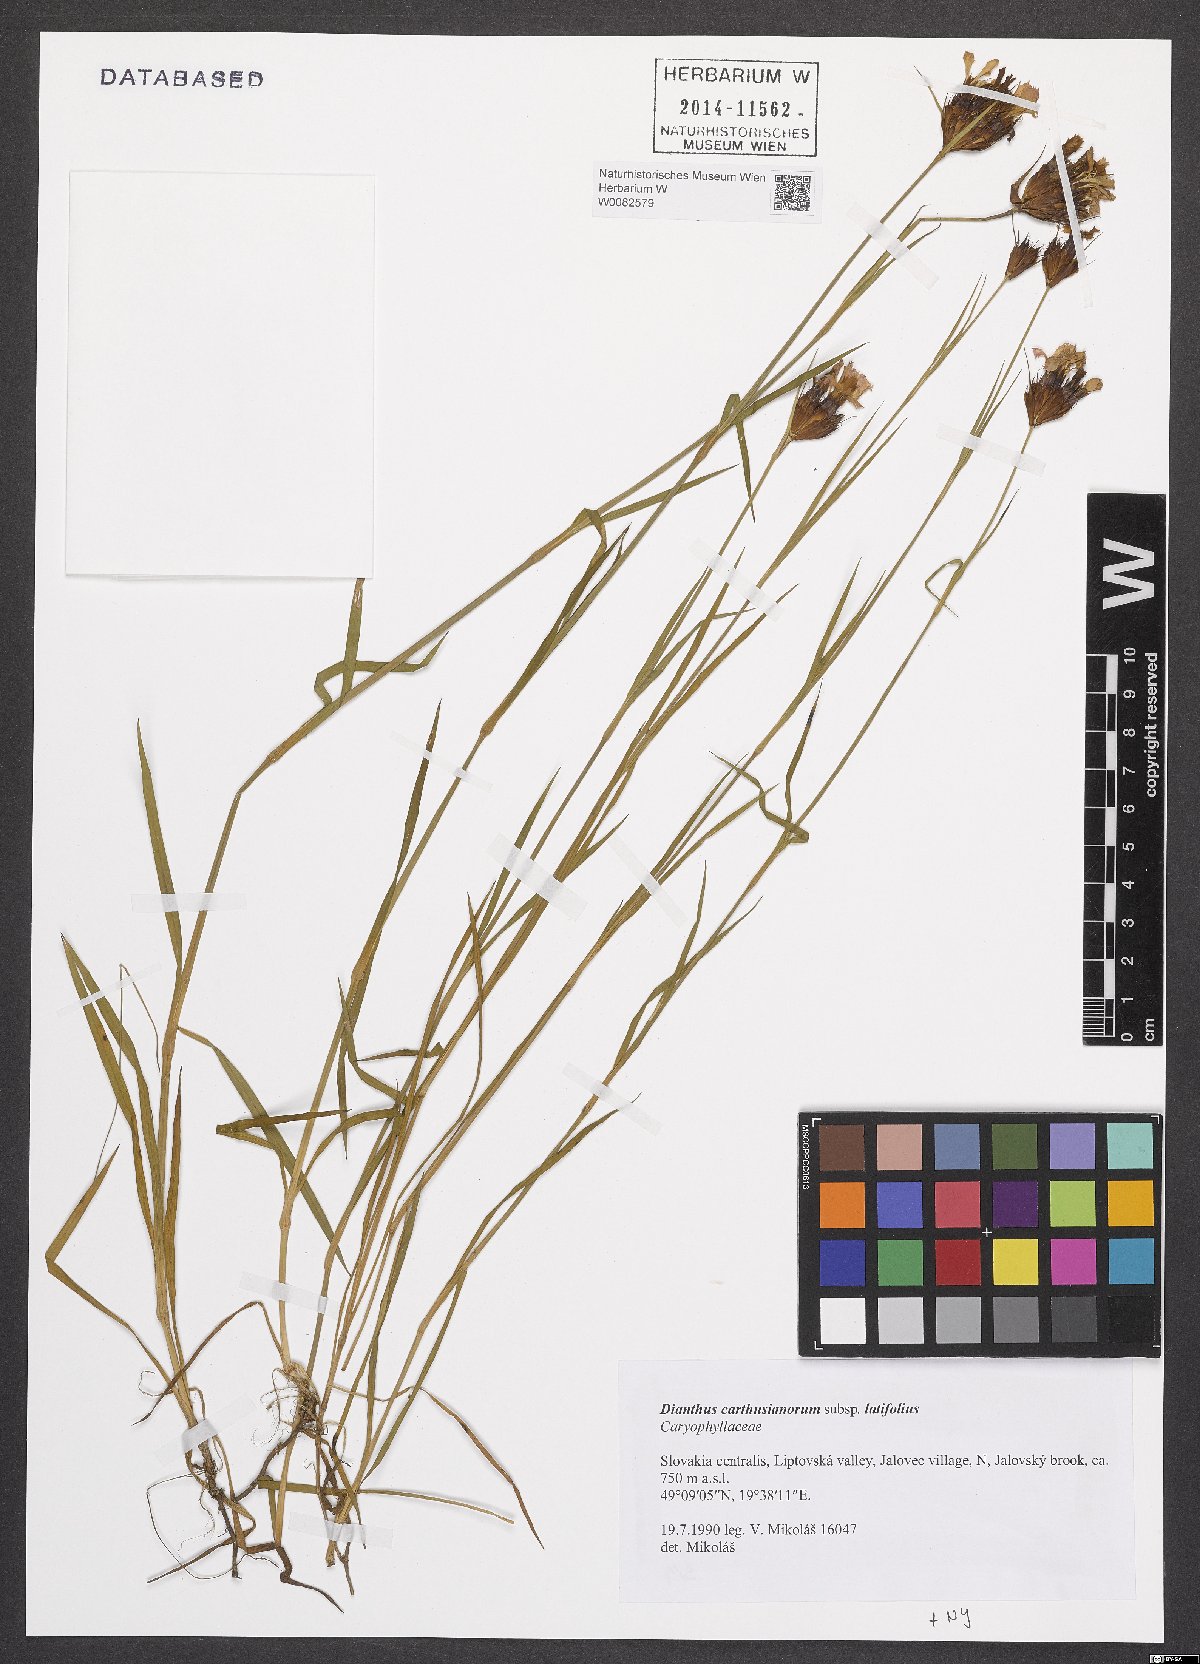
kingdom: Plantae
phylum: Tracheophyta
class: Magnoliopsida
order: Caryophyllales
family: Caryophyllaceae
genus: Dianthus
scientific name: Dianthus carthusianorum
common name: Carthusian pink
